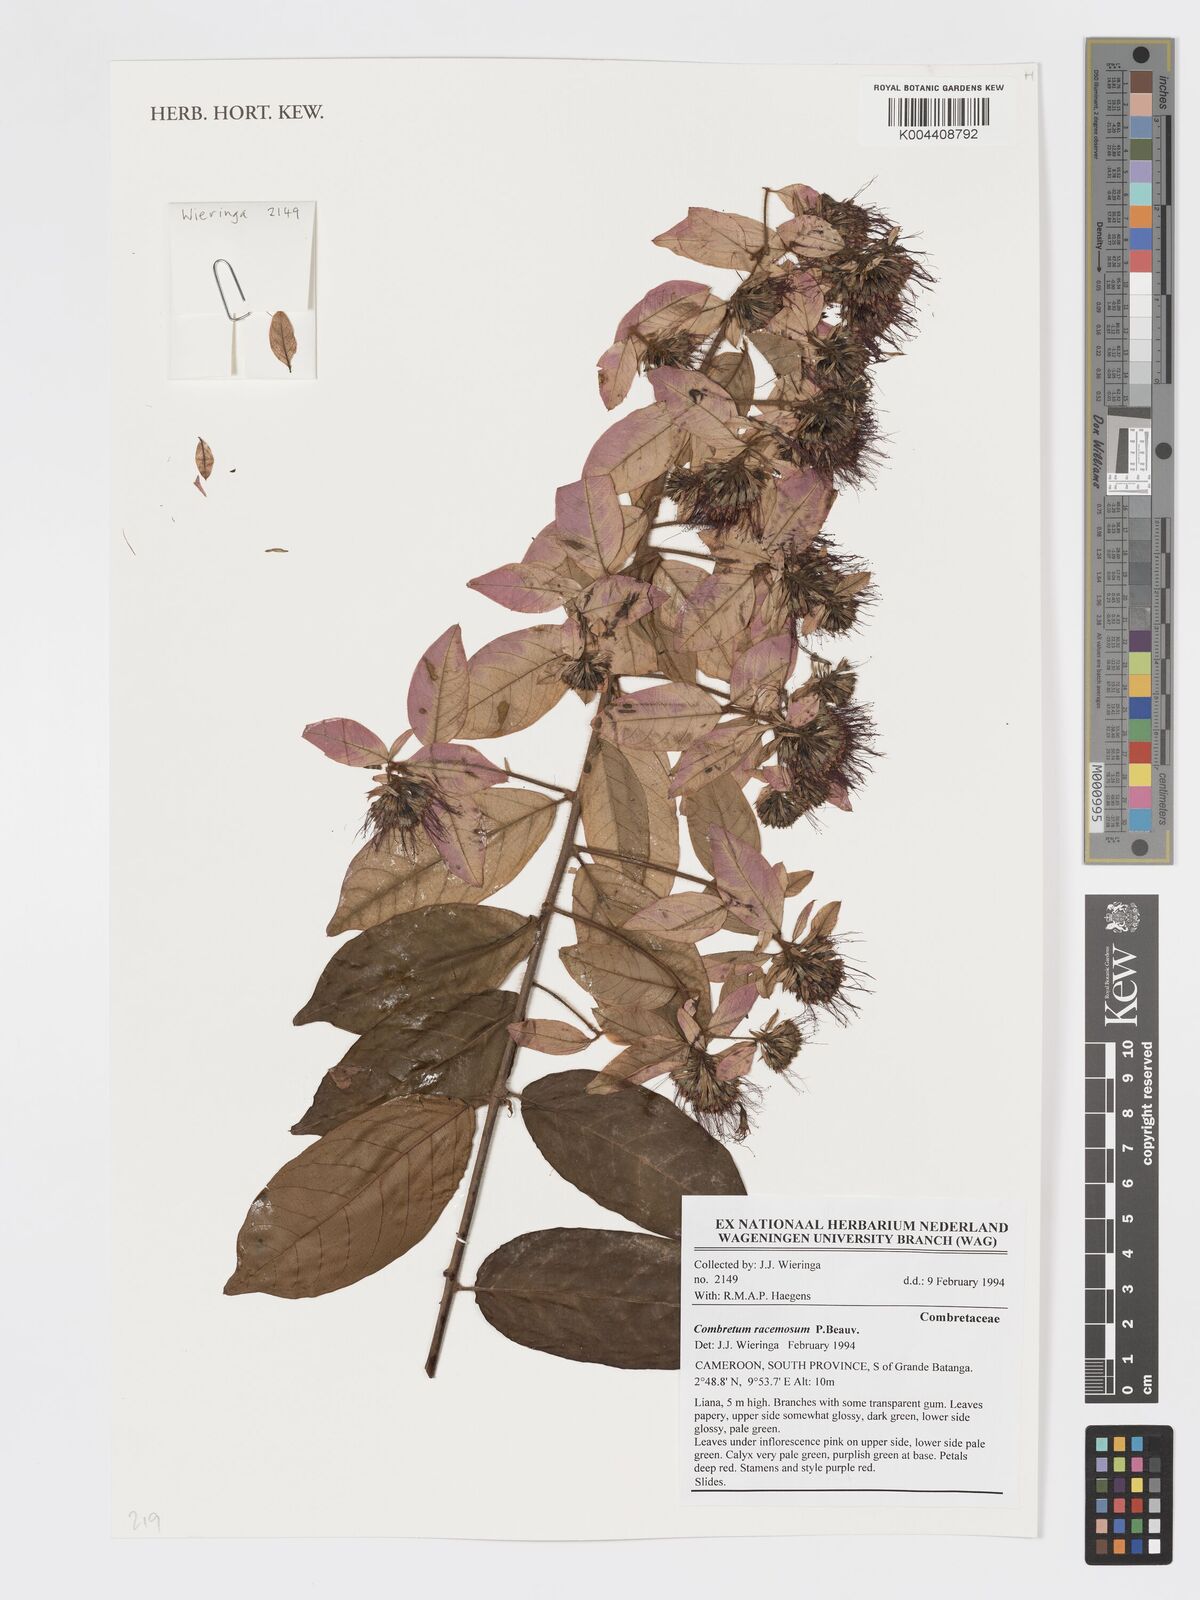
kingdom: Plantae
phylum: Tracheophyta
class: Magnoliopsida
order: Myrtales
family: Combretaceae
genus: Combretum
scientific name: Combretum racemosum
